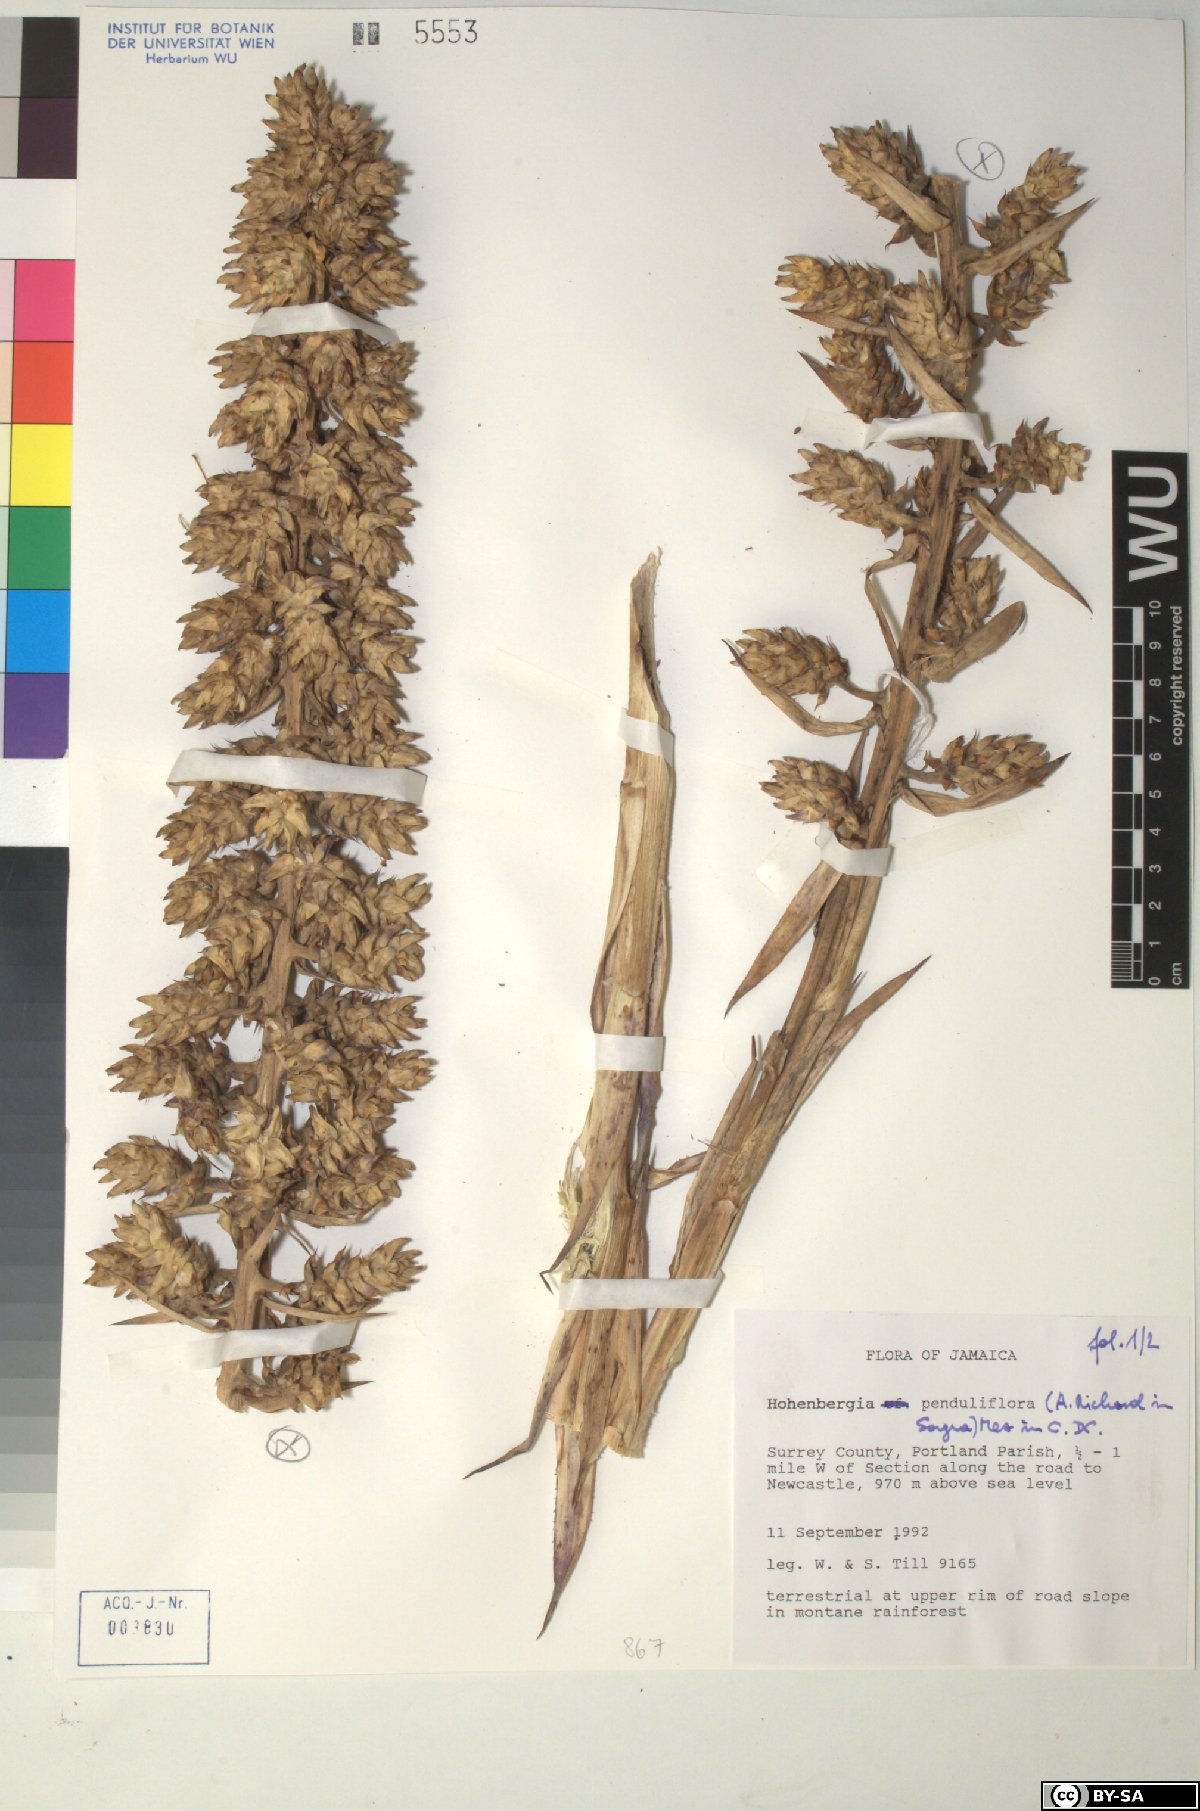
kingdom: Plantae
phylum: Tracheophyta
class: Liliopsida
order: Poales
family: Bromeliaceae
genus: Wittmackia
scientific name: Wittmackia penduliflora
